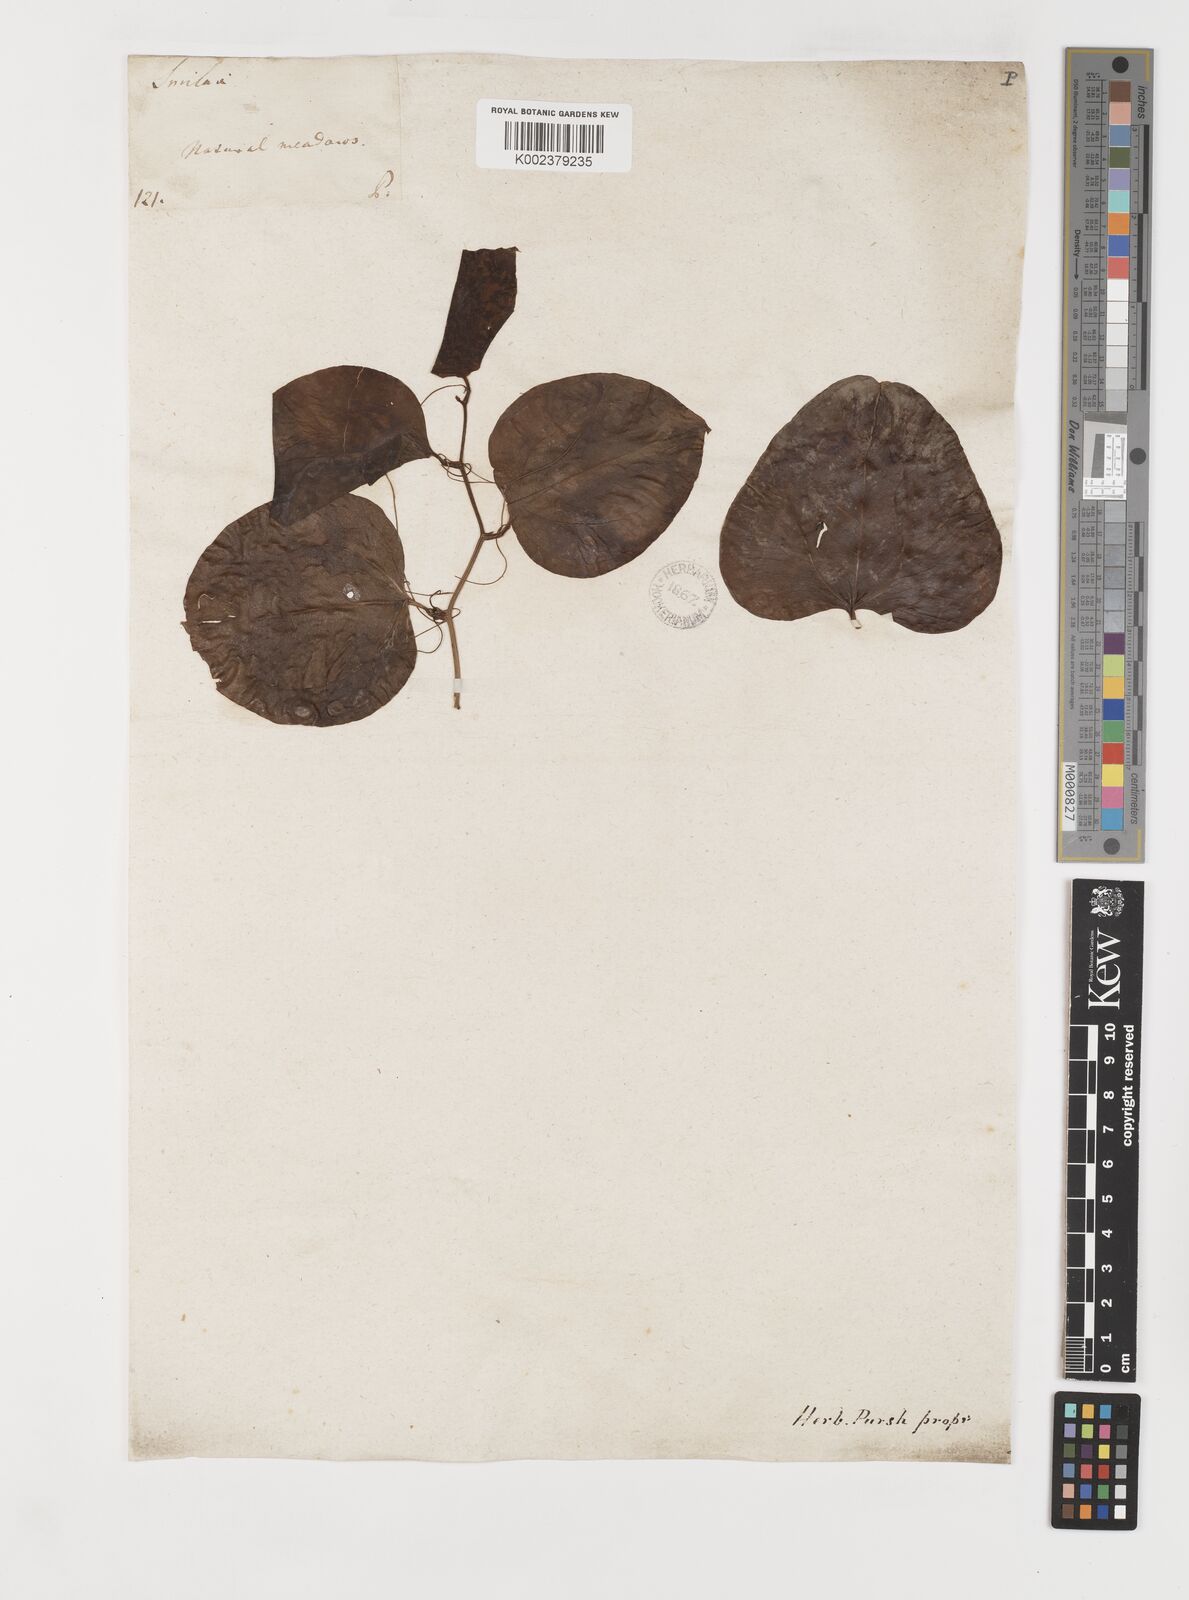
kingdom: Plantae
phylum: Tracheophyta
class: Liliopsida
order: Liliales
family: Smilacaceae
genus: Smilax
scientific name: Smilax rotundifolia
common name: Bullbriar
